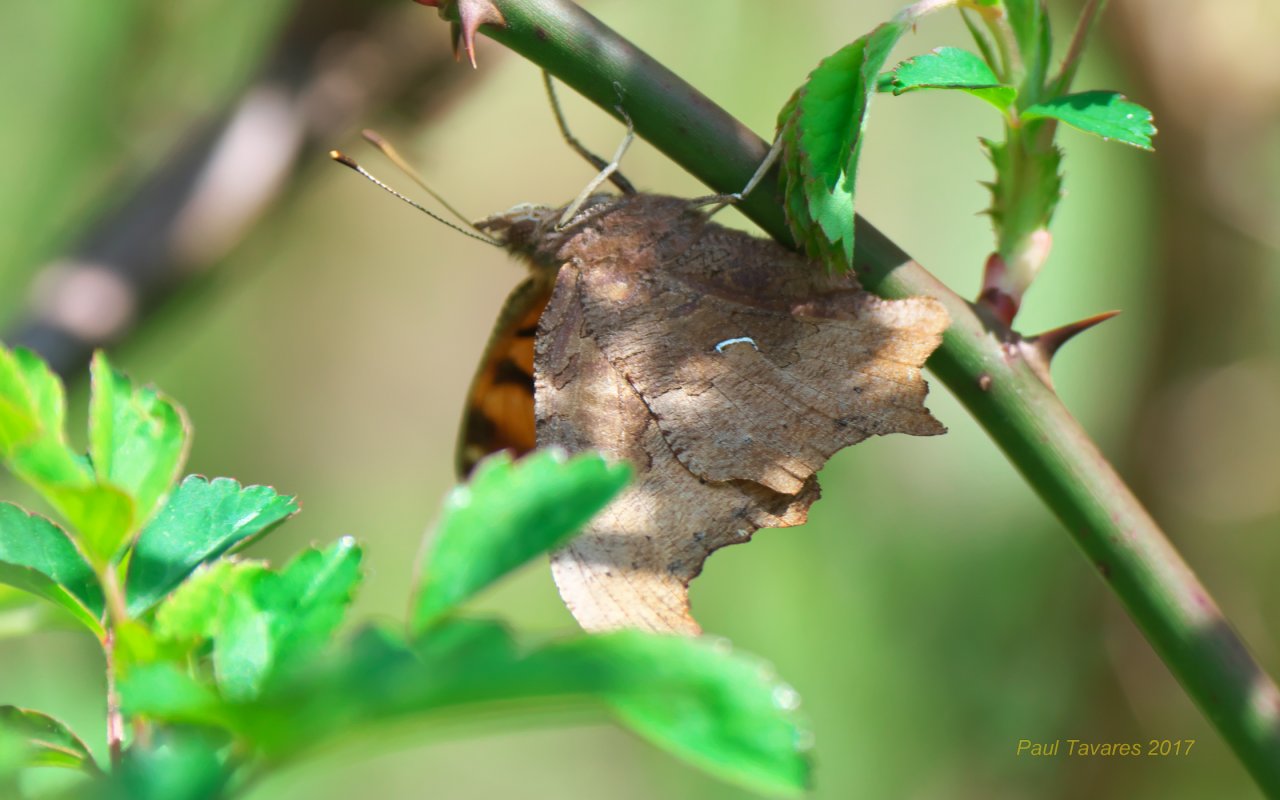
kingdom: Animalia
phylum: Arthropoda
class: Insecta
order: Lepidoptera
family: Nymphalidae
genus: Polygonia
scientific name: Polygonia comma
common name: Eastern Comma
